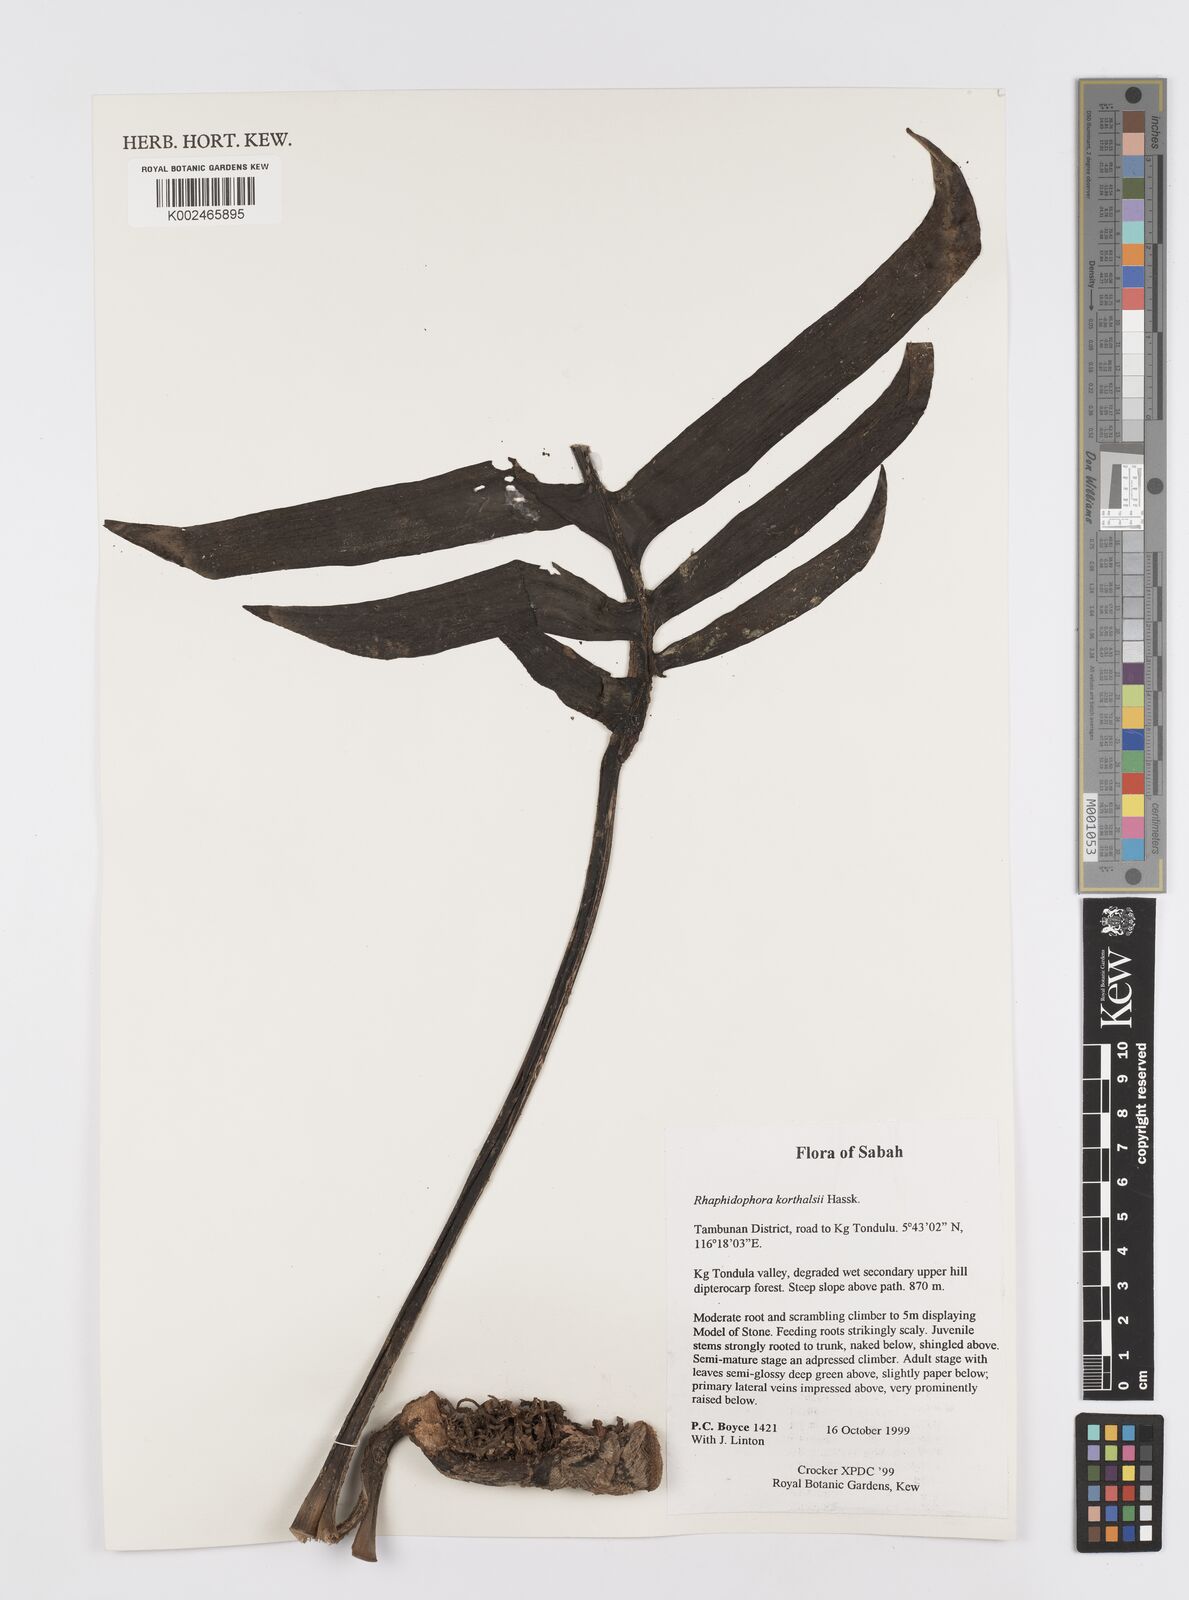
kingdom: Plantae
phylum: Tracheophyta
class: Liliopsida
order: Alismatales
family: Araceae
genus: Rhaphidophora
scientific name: Rhaphidophora korthalsii
